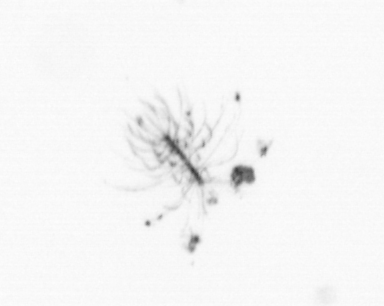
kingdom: Chromista
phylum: Ochrophyta
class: Bacillariophyceae
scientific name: Bacillariophyceae
